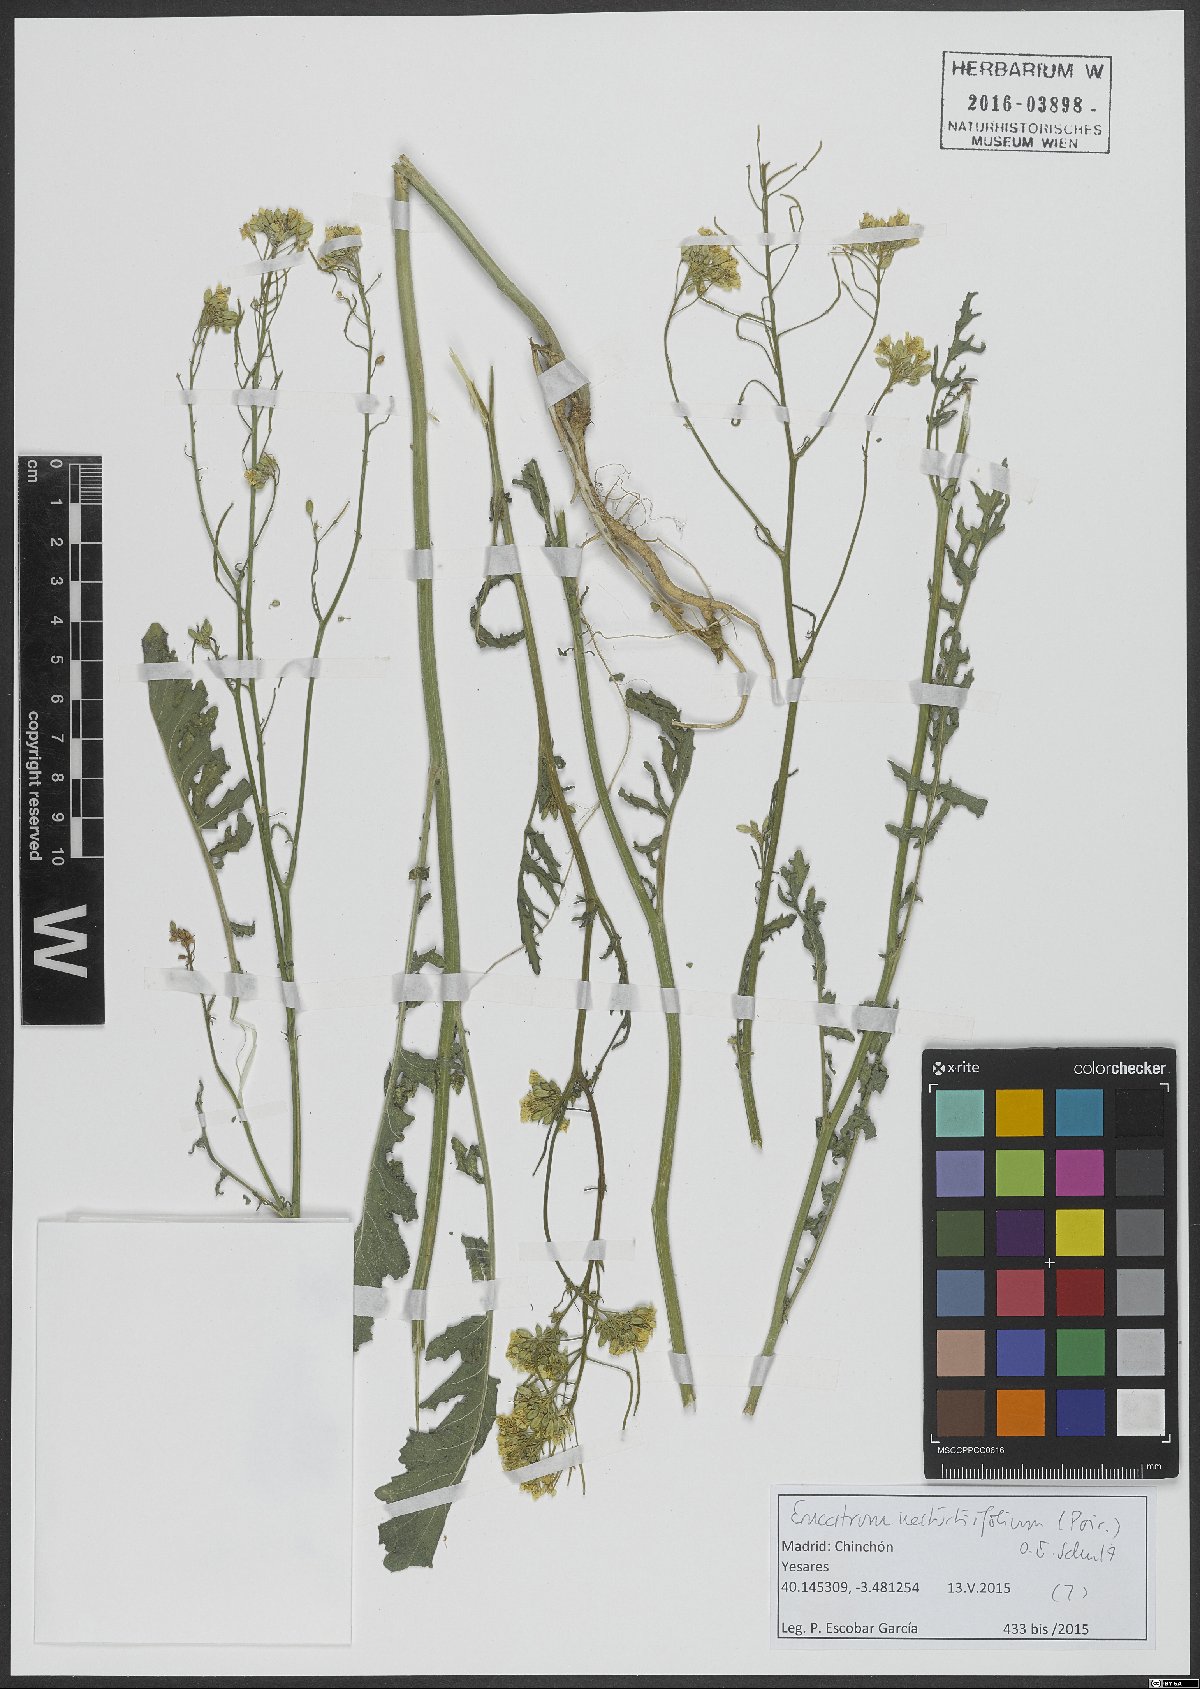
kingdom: Plantae
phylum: Tracheophyta
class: Magnoliopsida
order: Brassicales
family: Brassicaceae
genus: Erucastrum
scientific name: Erucastrum nasturtiifolium
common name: Watercress-leaf rocket
